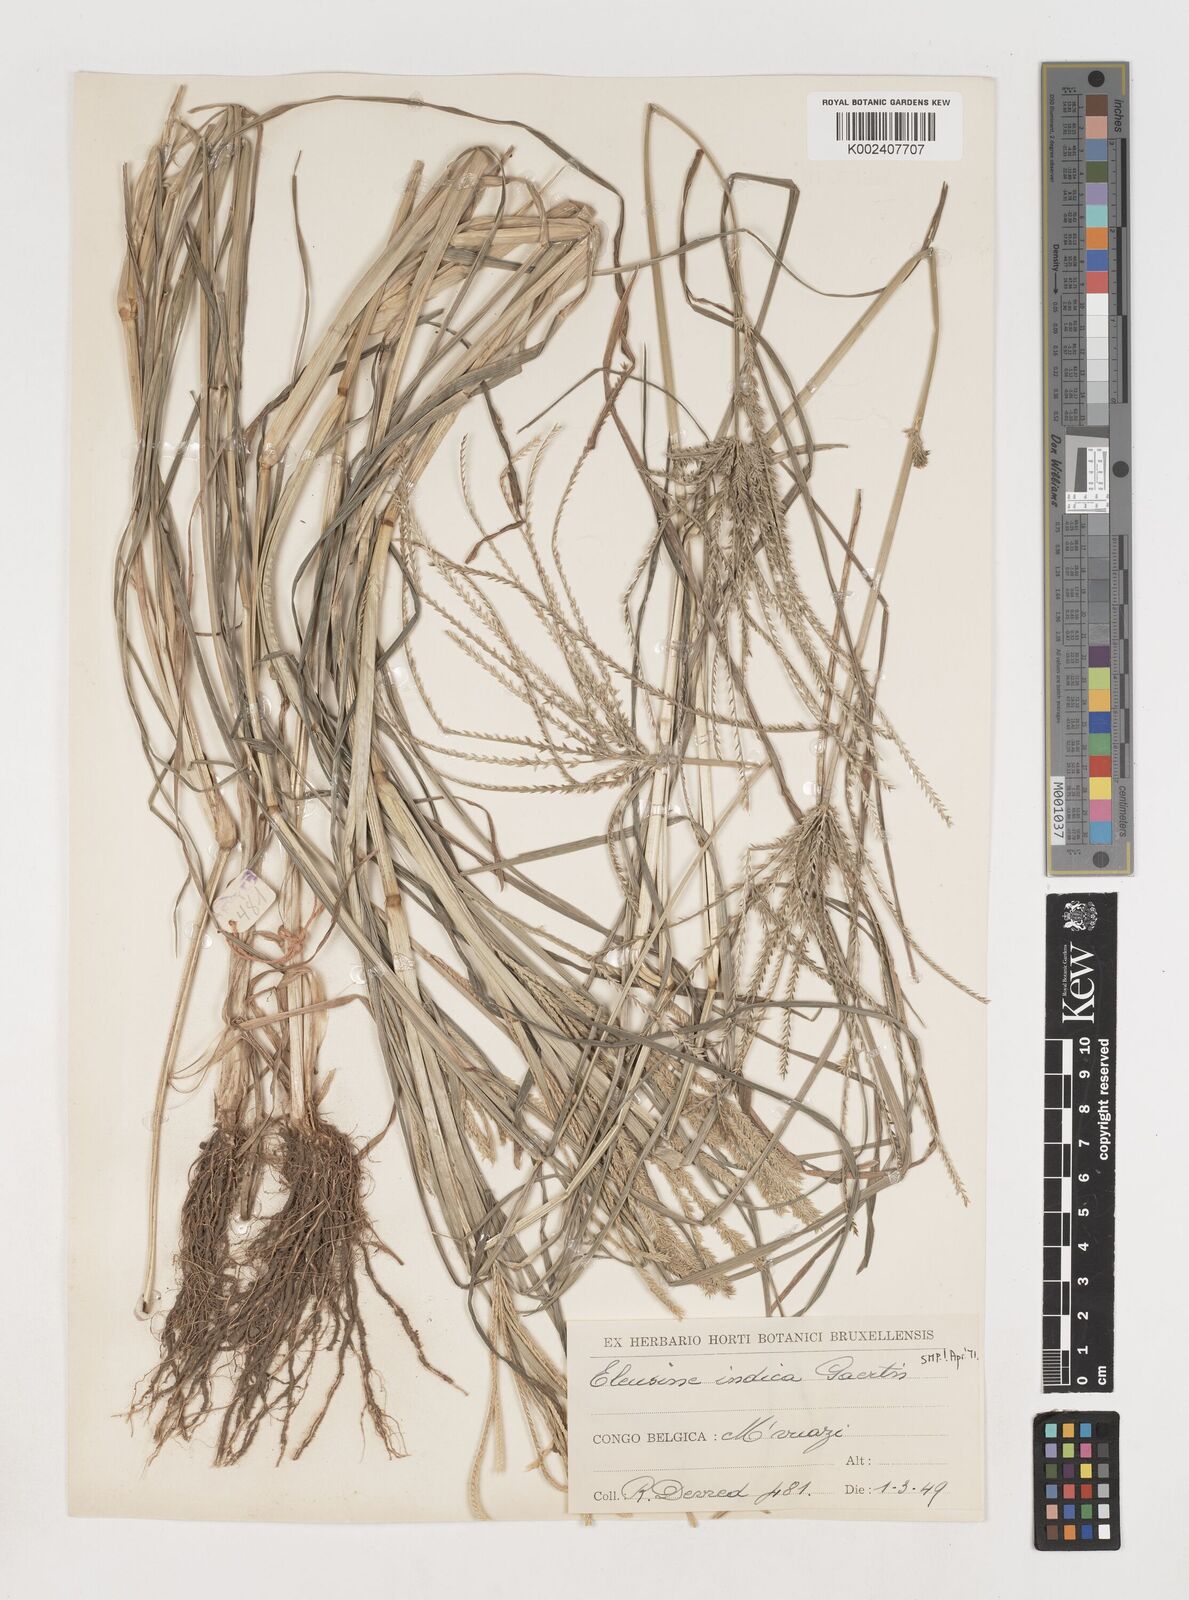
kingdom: Plantae
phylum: Tracheophyta
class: Liliopsida
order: Poales
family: Poaceae
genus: Eleusine
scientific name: Eleusine indica
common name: Yard-grass
